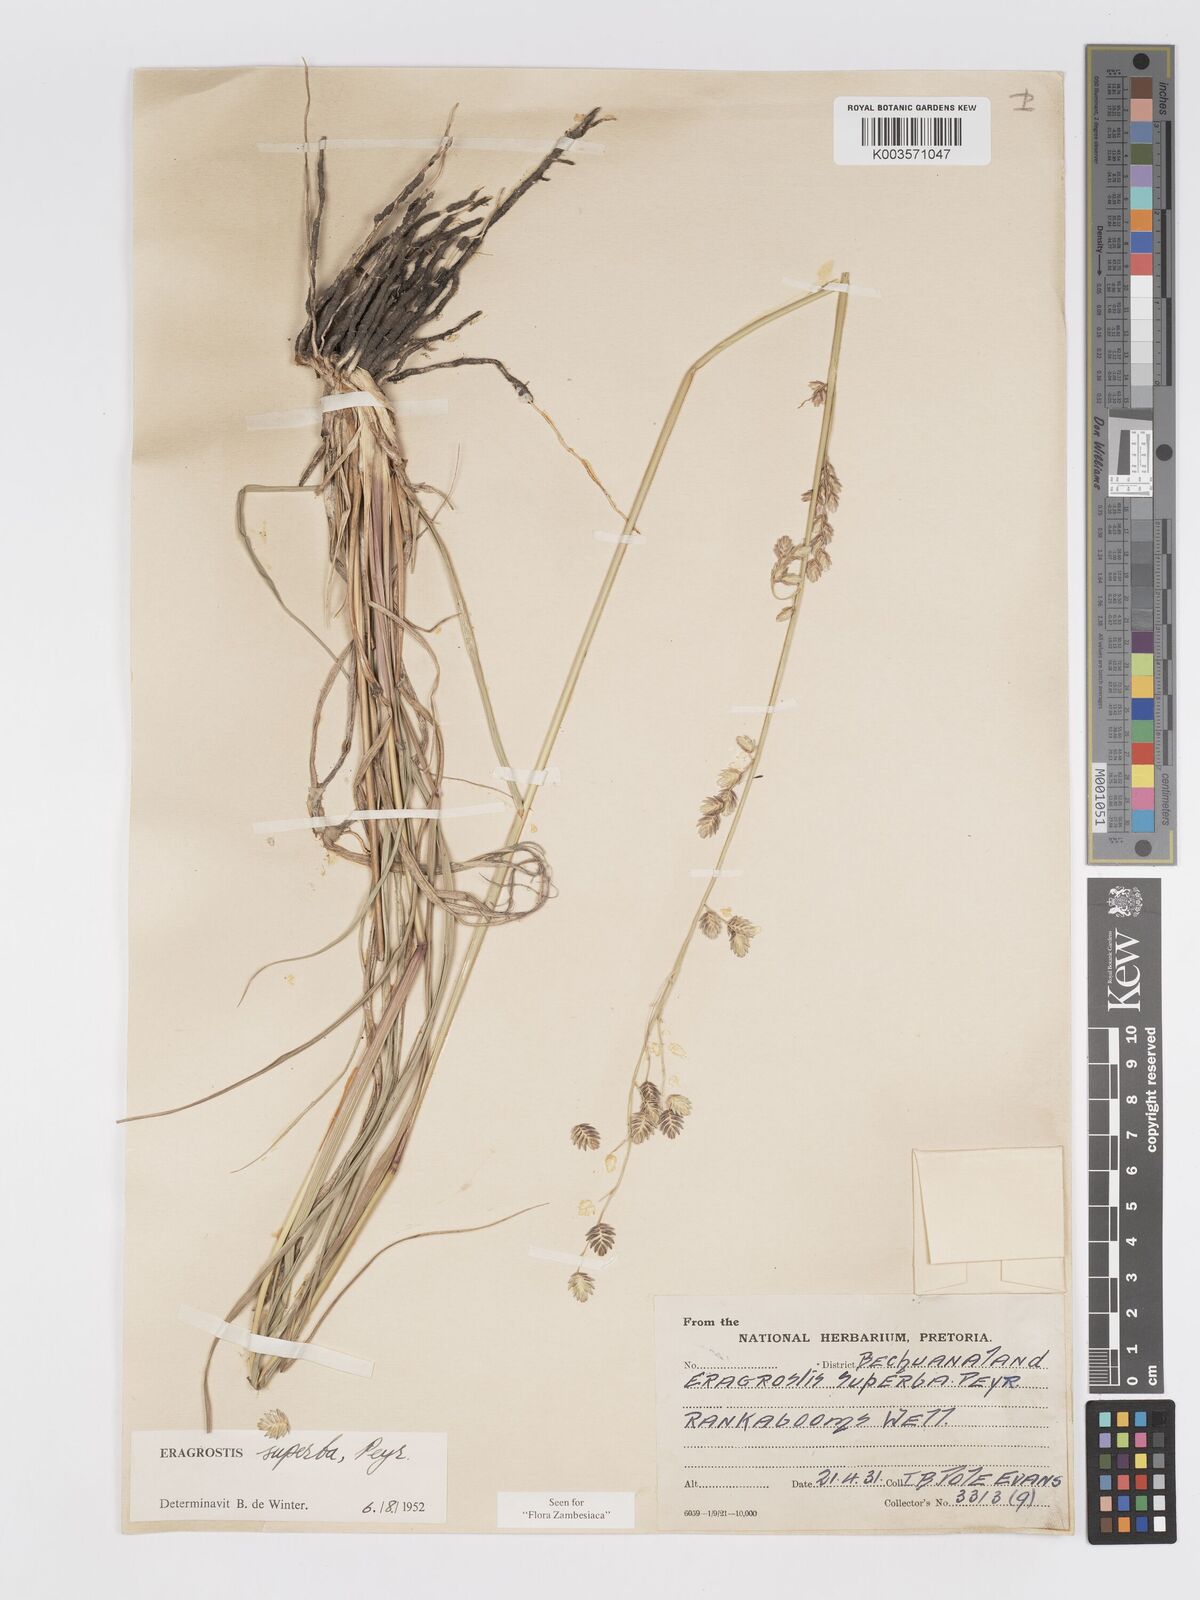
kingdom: Plantae
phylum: Tracheophyta
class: Liliopsida
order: Poales
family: Poaceae
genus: Eragrostis
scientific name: Eragrostis superba
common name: Wilman lovegrass
